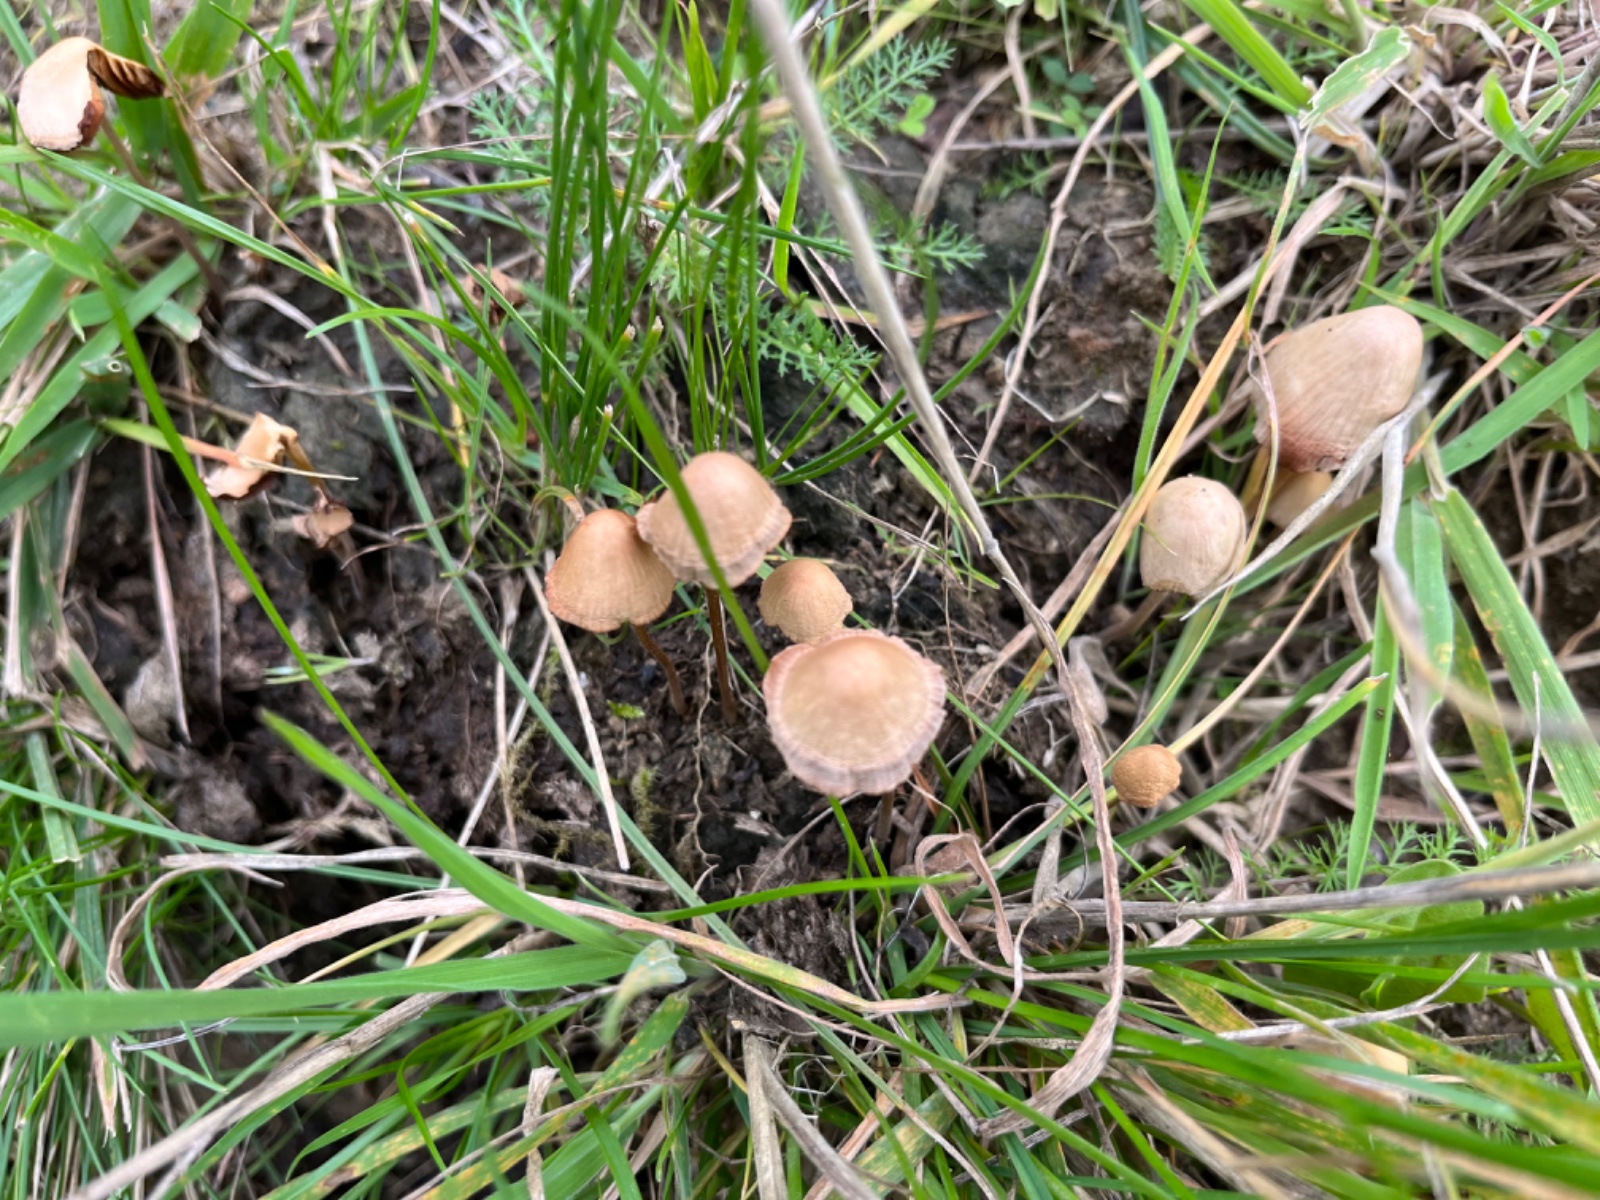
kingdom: Fungi
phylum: Basidiomycota
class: Agaricomycetes
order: Agaricales
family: Bolbitiaceae
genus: Conocybe
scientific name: Conocybe
